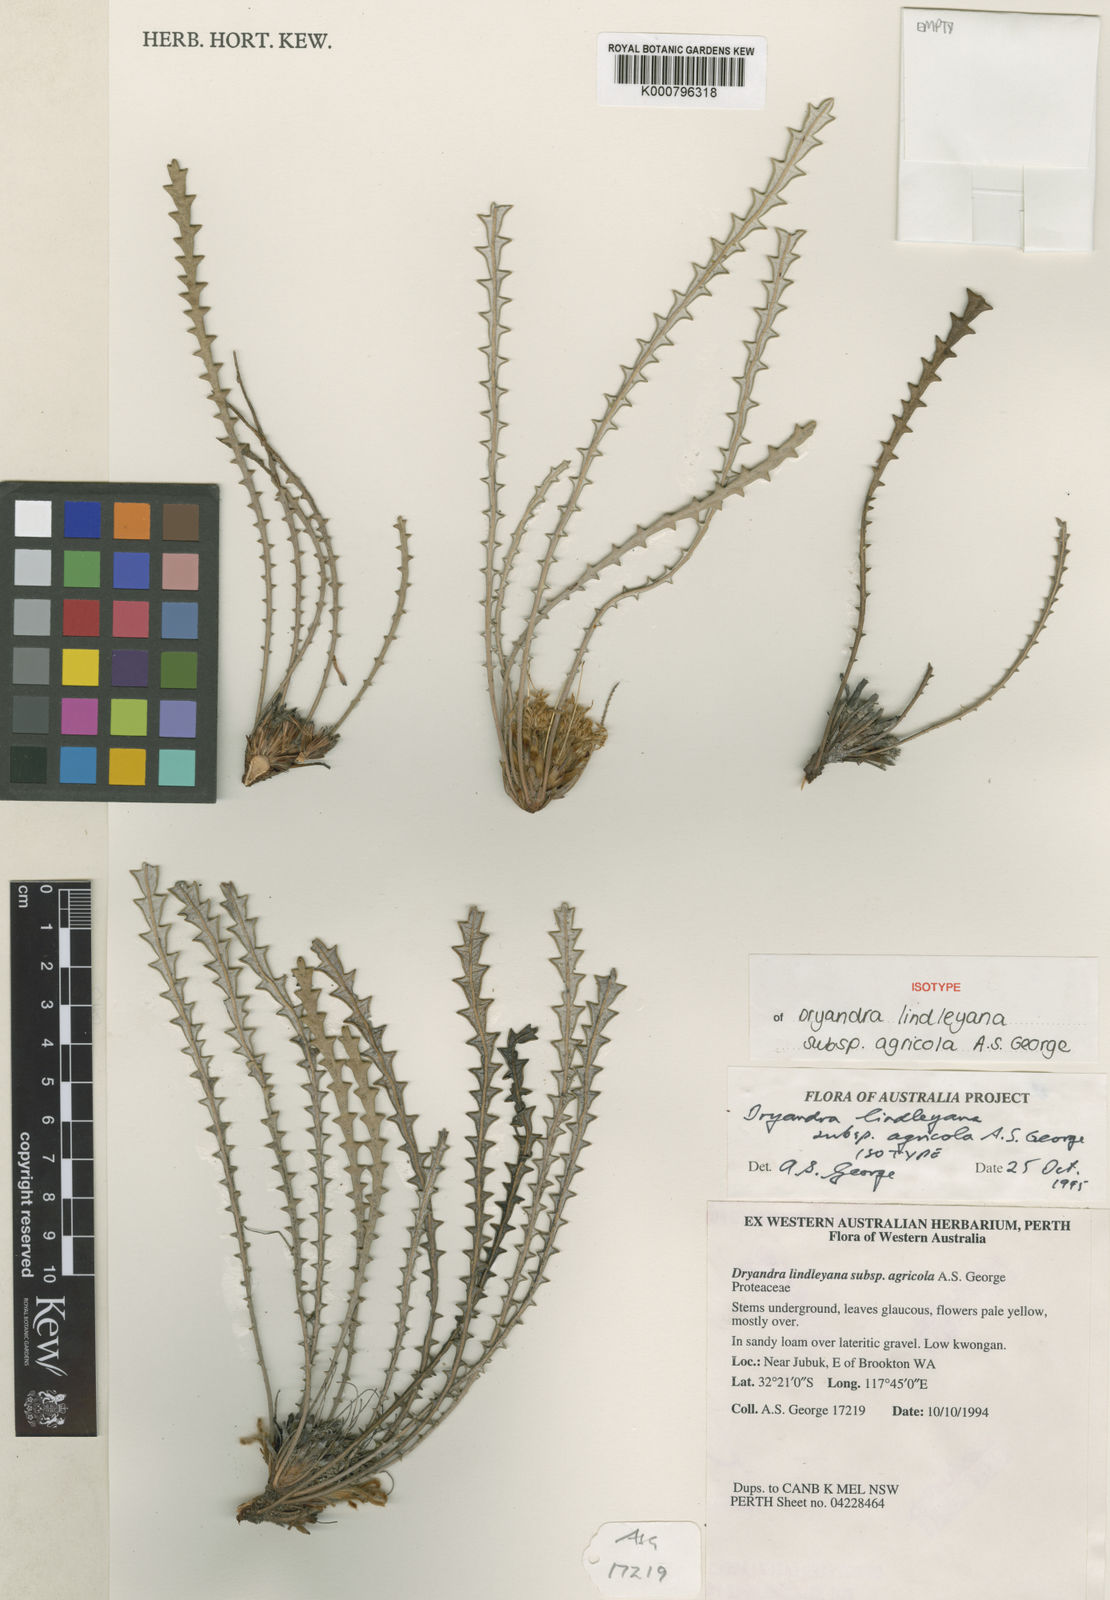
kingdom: Plantae
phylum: Tracheophyta
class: Magnoliopsida
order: Proteales
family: Proteaceae
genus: Banksia
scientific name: Banksia dallanneyi
